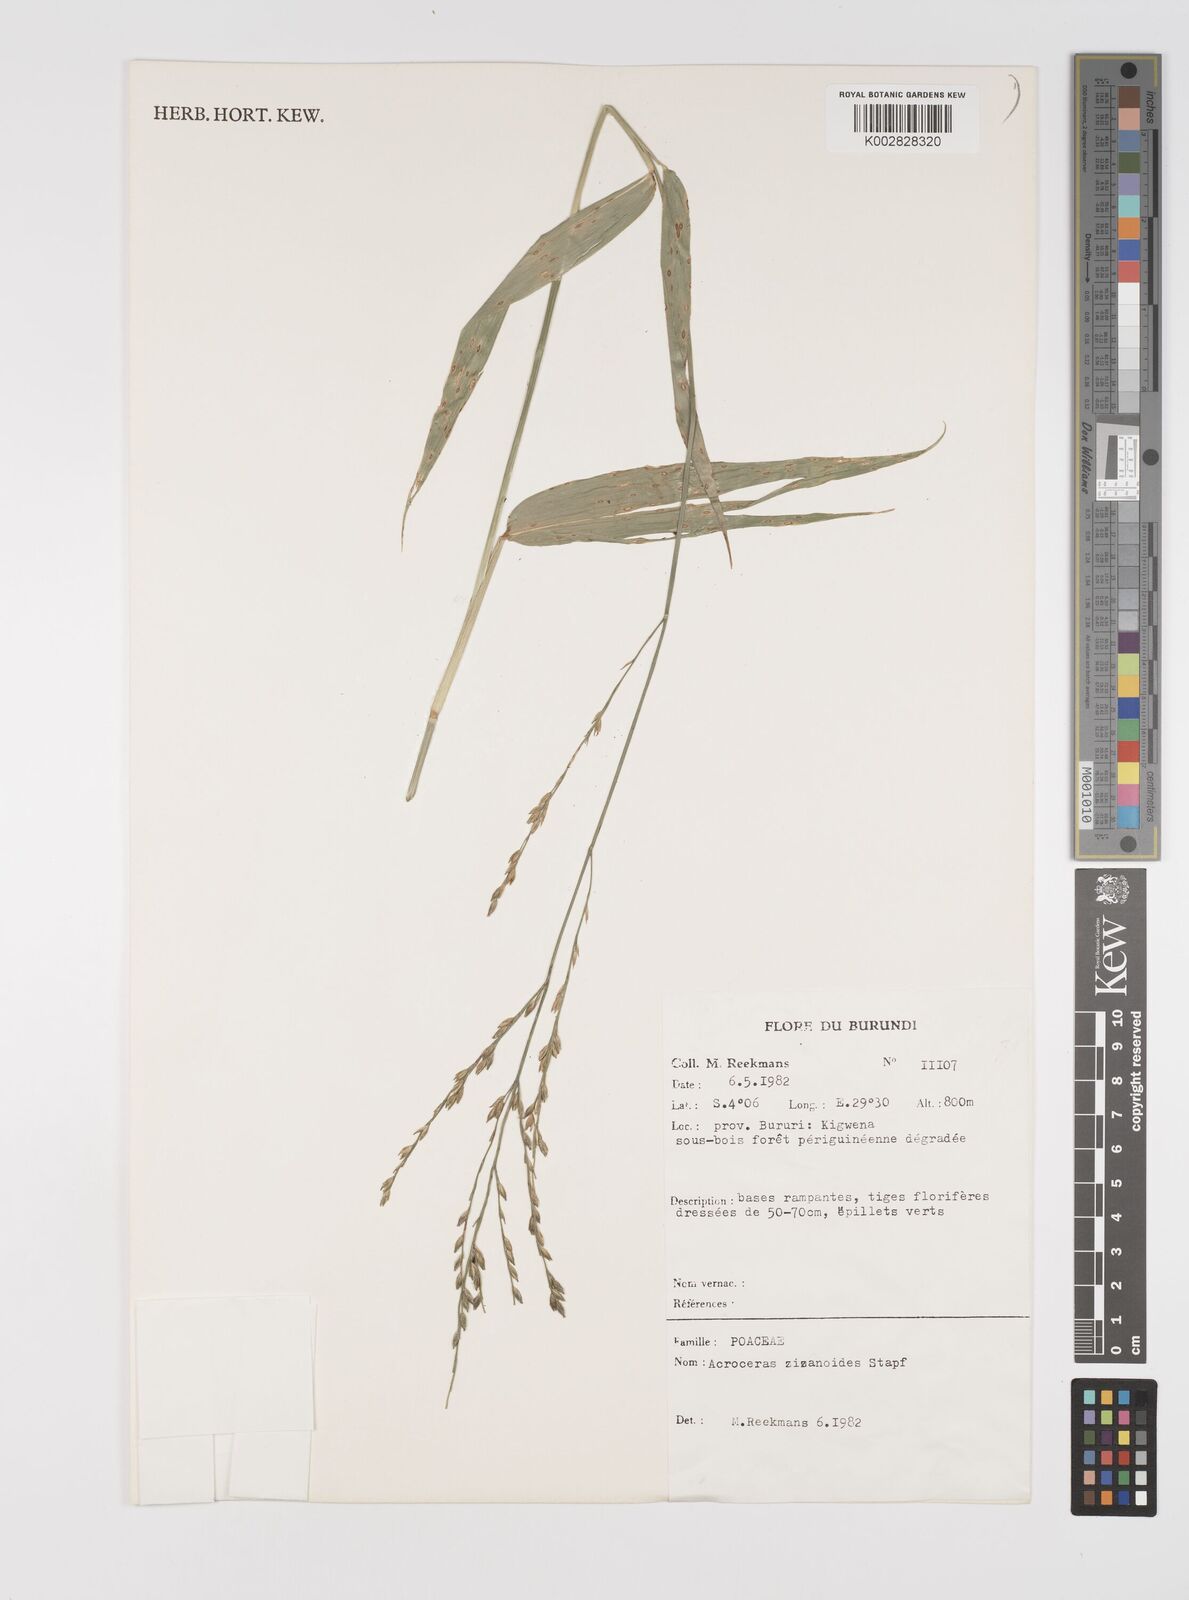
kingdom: Plantae
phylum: Tracheophyta
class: Liliopsida
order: Poales
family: Poaceae
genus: Acroceras
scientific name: Acroceras zizanioides
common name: Oat grass
